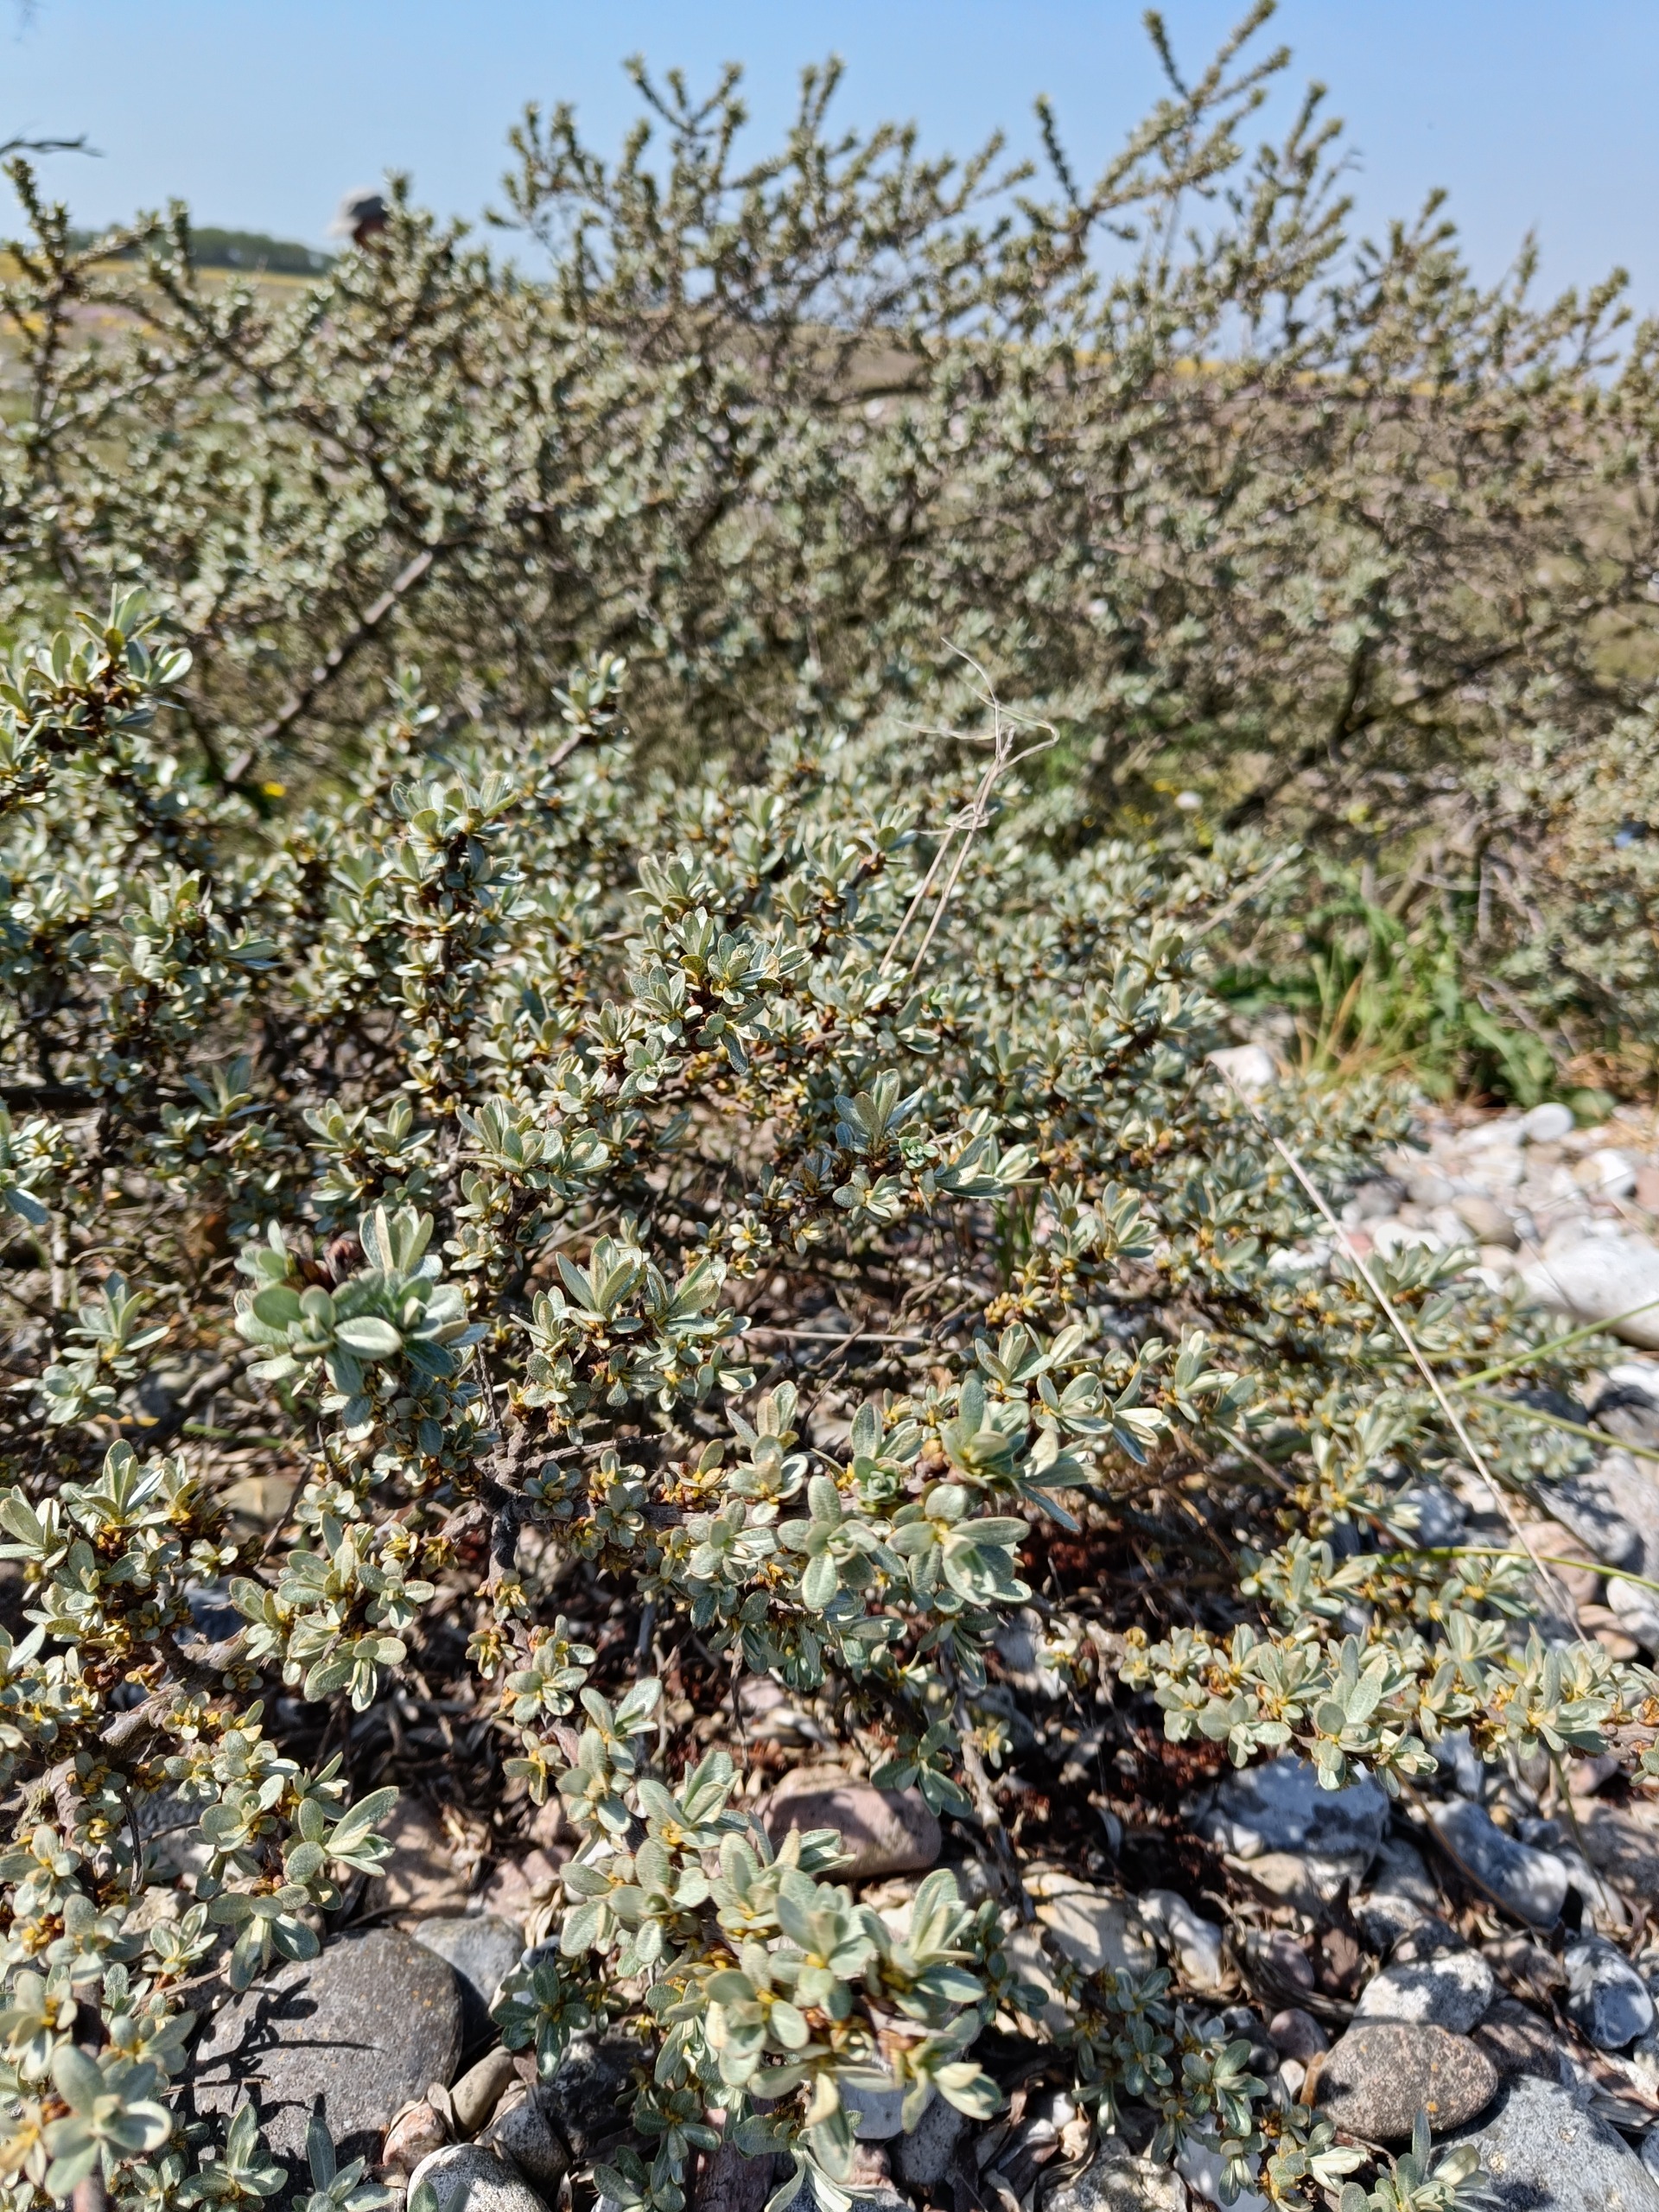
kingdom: Plantae
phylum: Tracheophyta
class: Magnoliopsida
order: Rosales
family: Elaeagnaceae
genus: Hippophae
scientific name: Hippophae rhamnoides
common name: Havtorn
